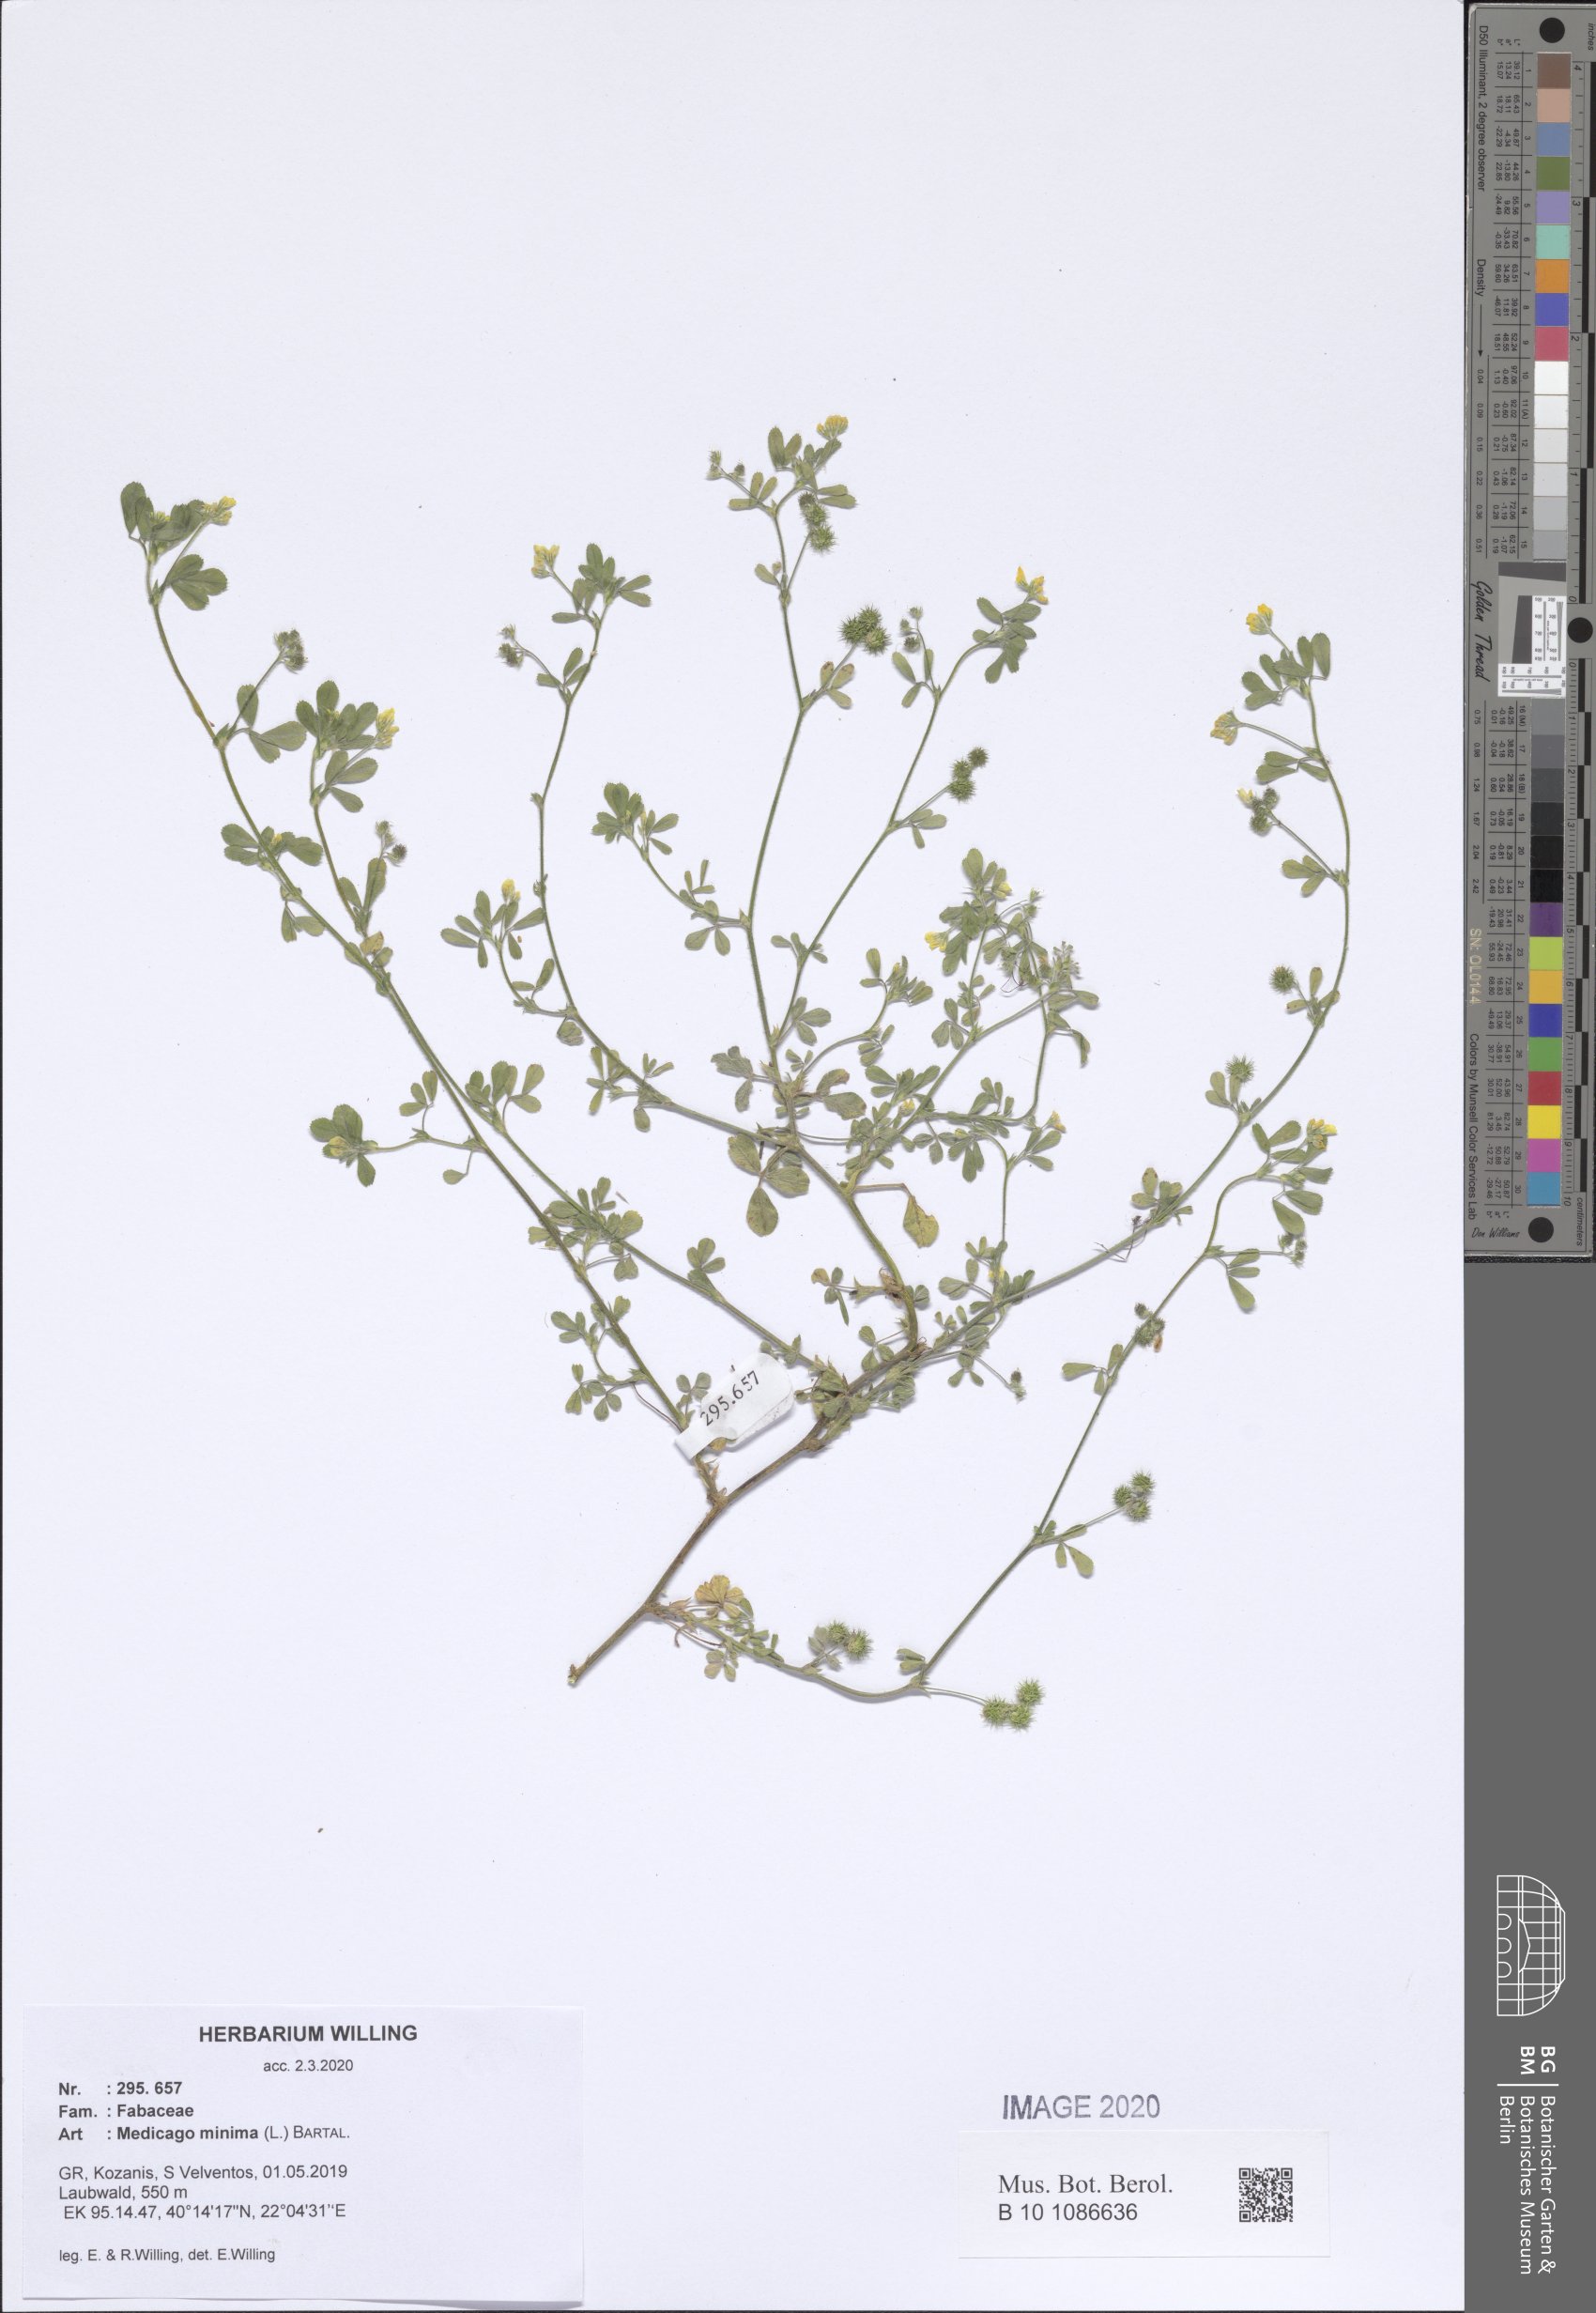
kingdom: Plantae
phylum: Tracheophyta
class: Magnoliopsida
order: Fabales
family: Fabaceae
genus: Medicago
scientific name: Medicago minima
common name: Little bur-clover
